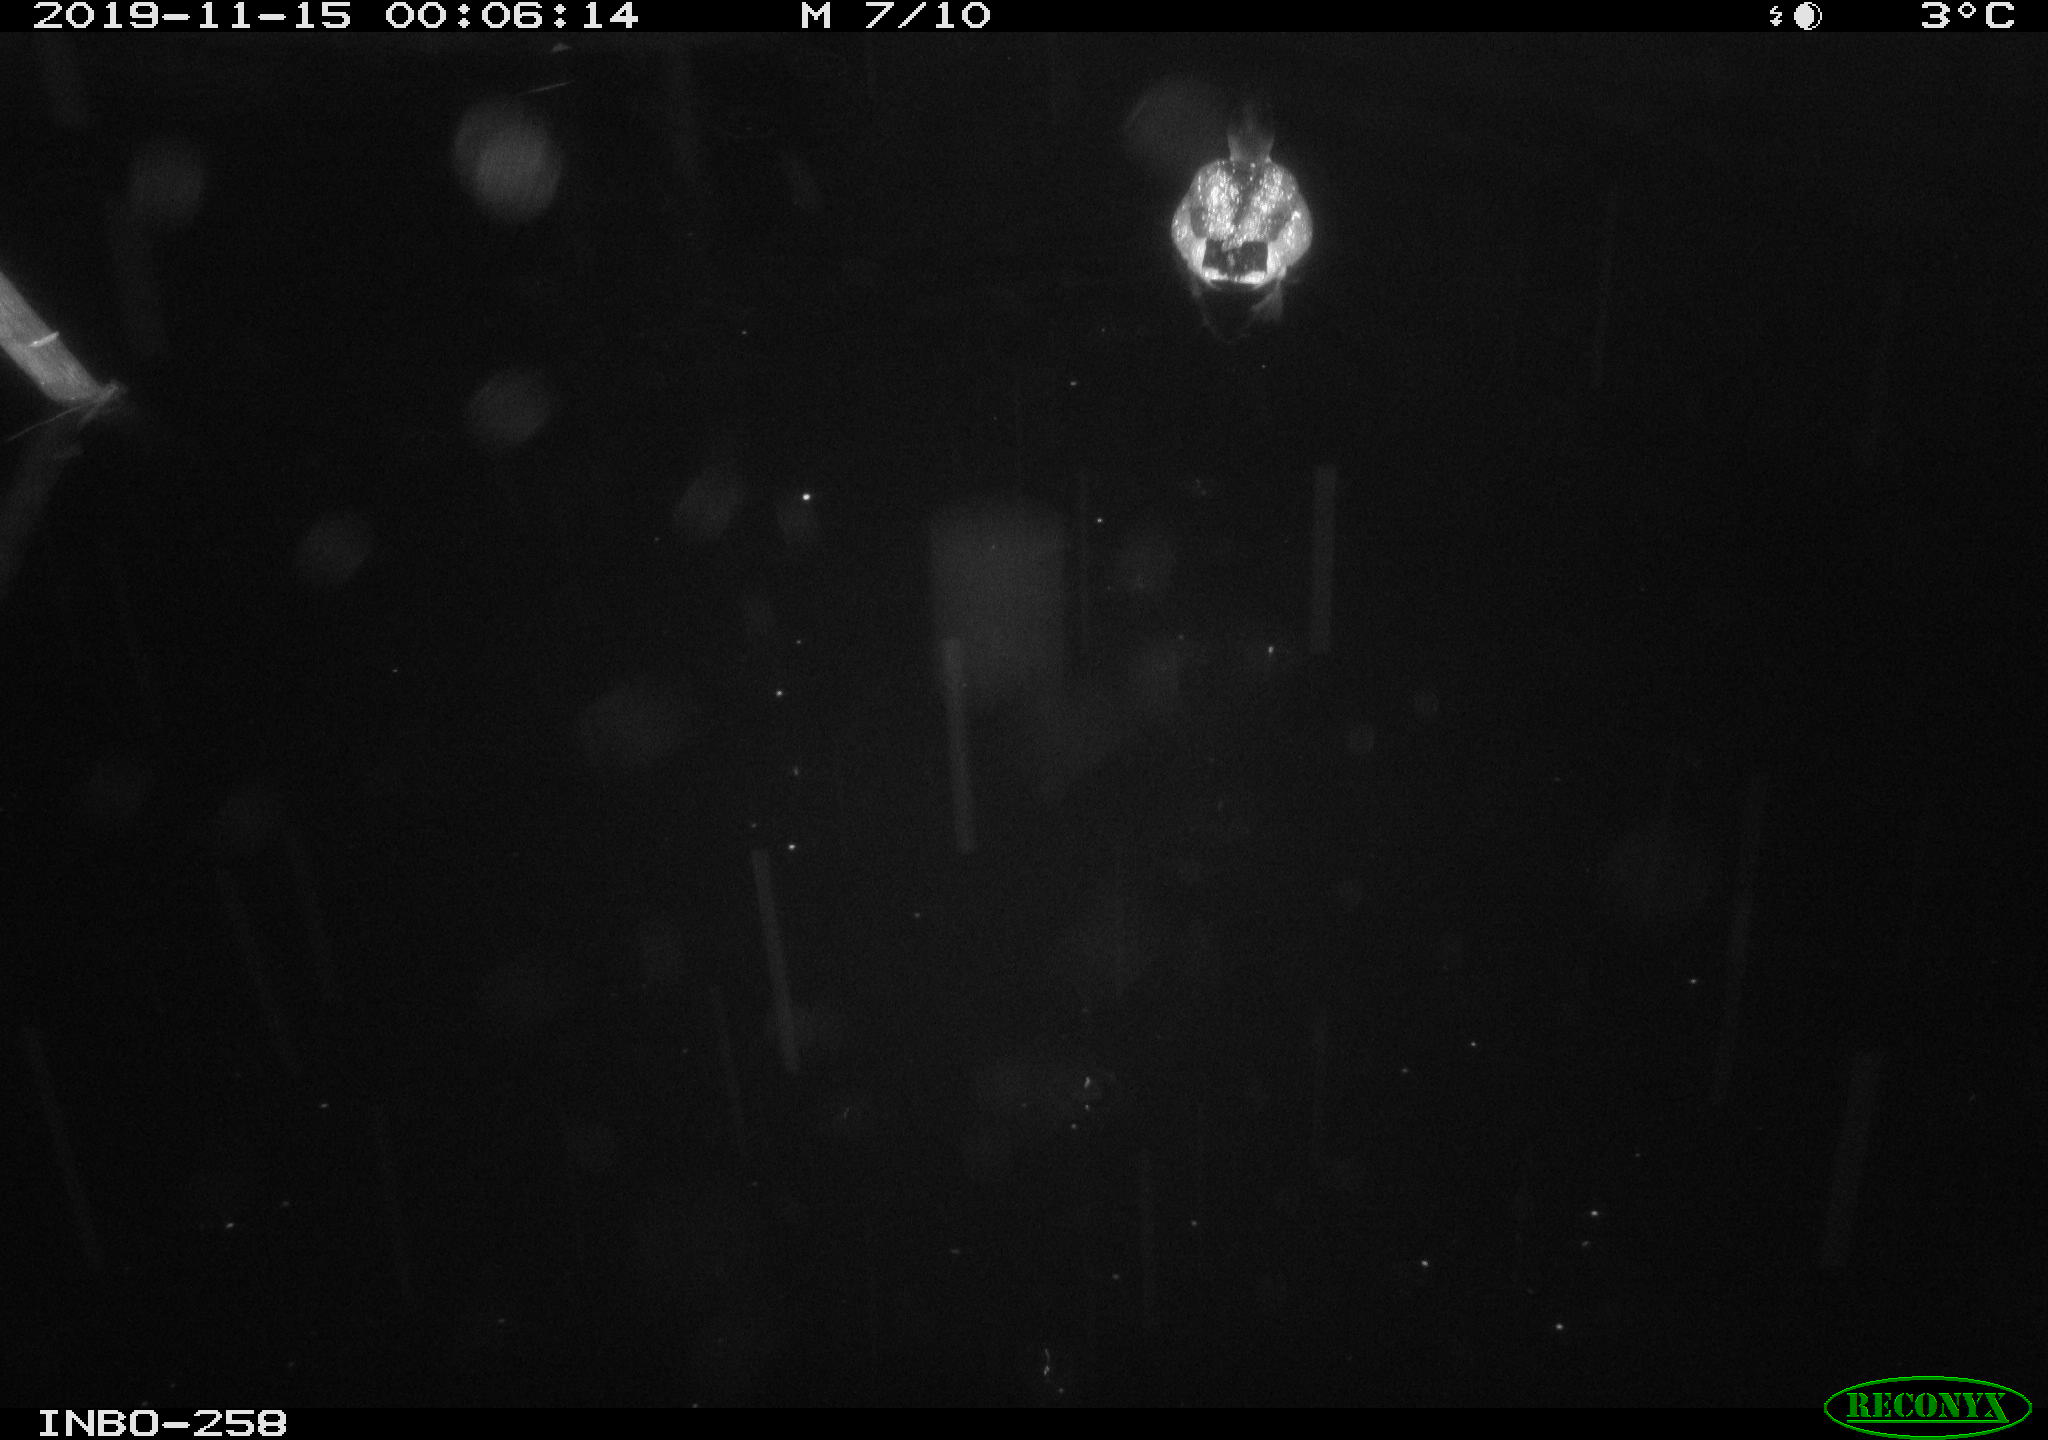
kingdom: Animalia
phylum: Chordata
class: Aves
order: Anseriformes
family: Anatidae
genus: Anas
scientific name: Anas platyrhynchos
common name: Mallard
